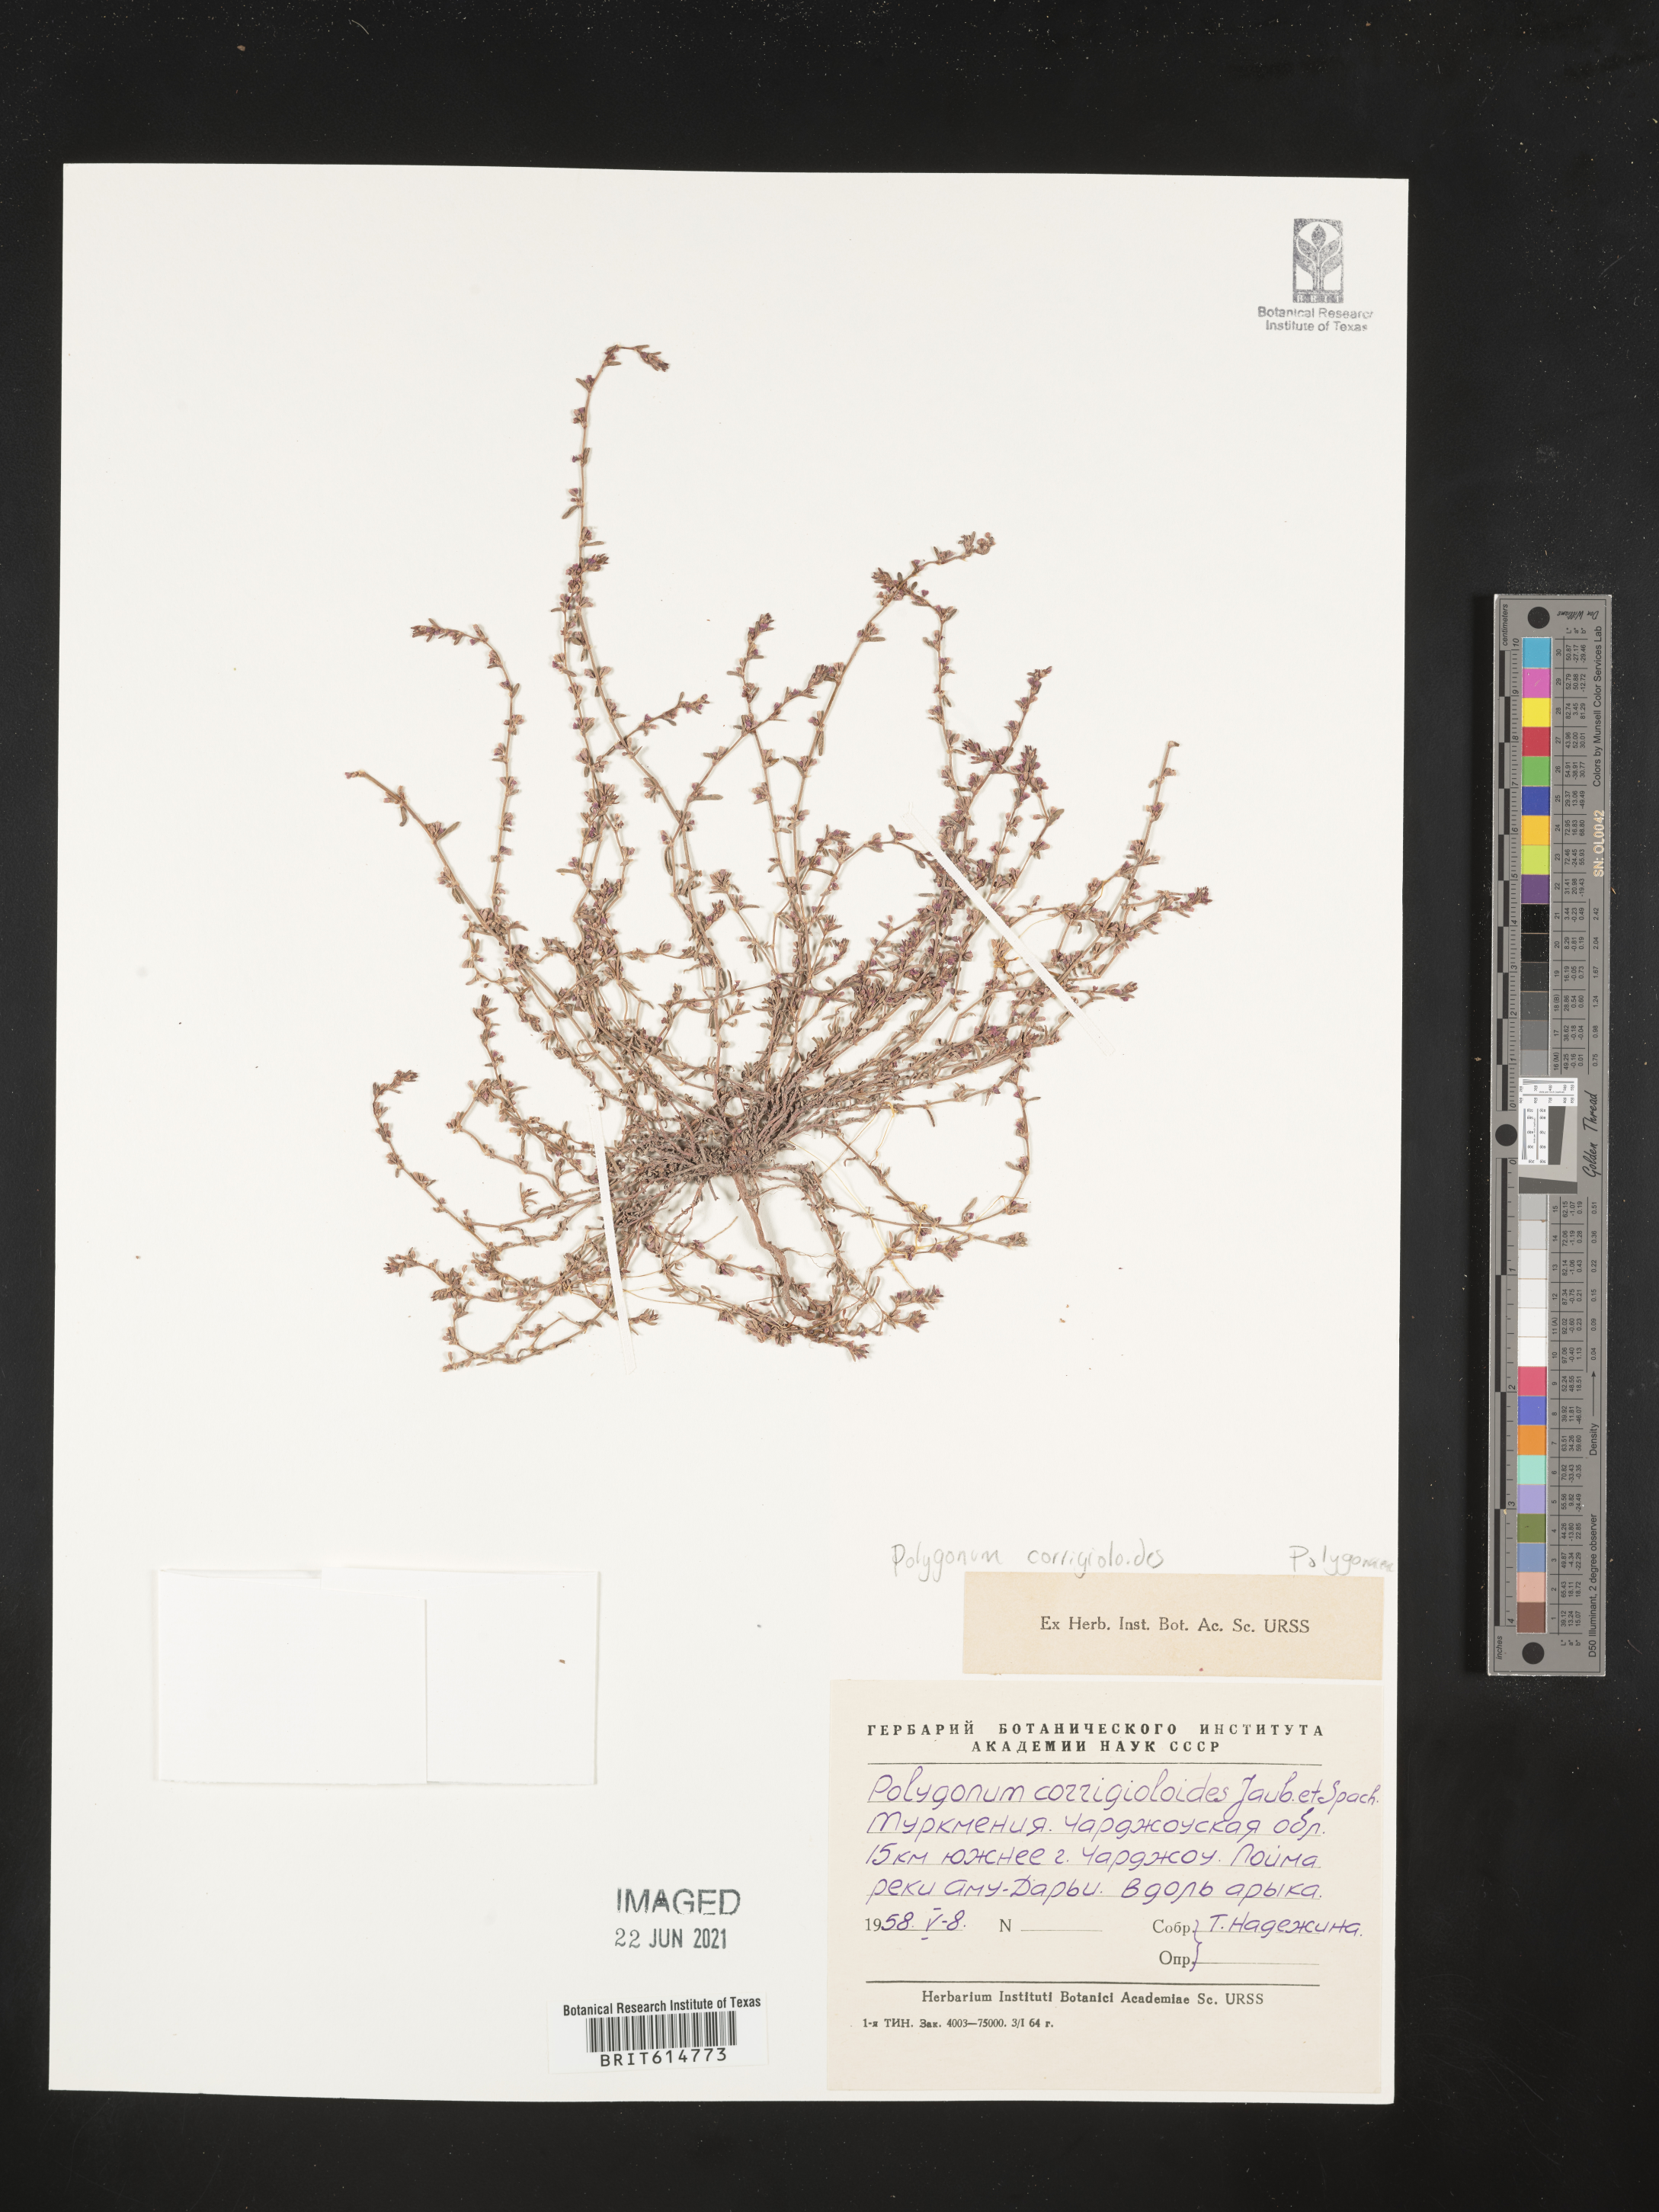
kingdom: Plantae
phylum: Tracheophyta
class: Magnoliopsida
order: Caryophyllales
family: Polygonaceae
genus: Polygonum
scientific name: Polygonum corrigioloides
